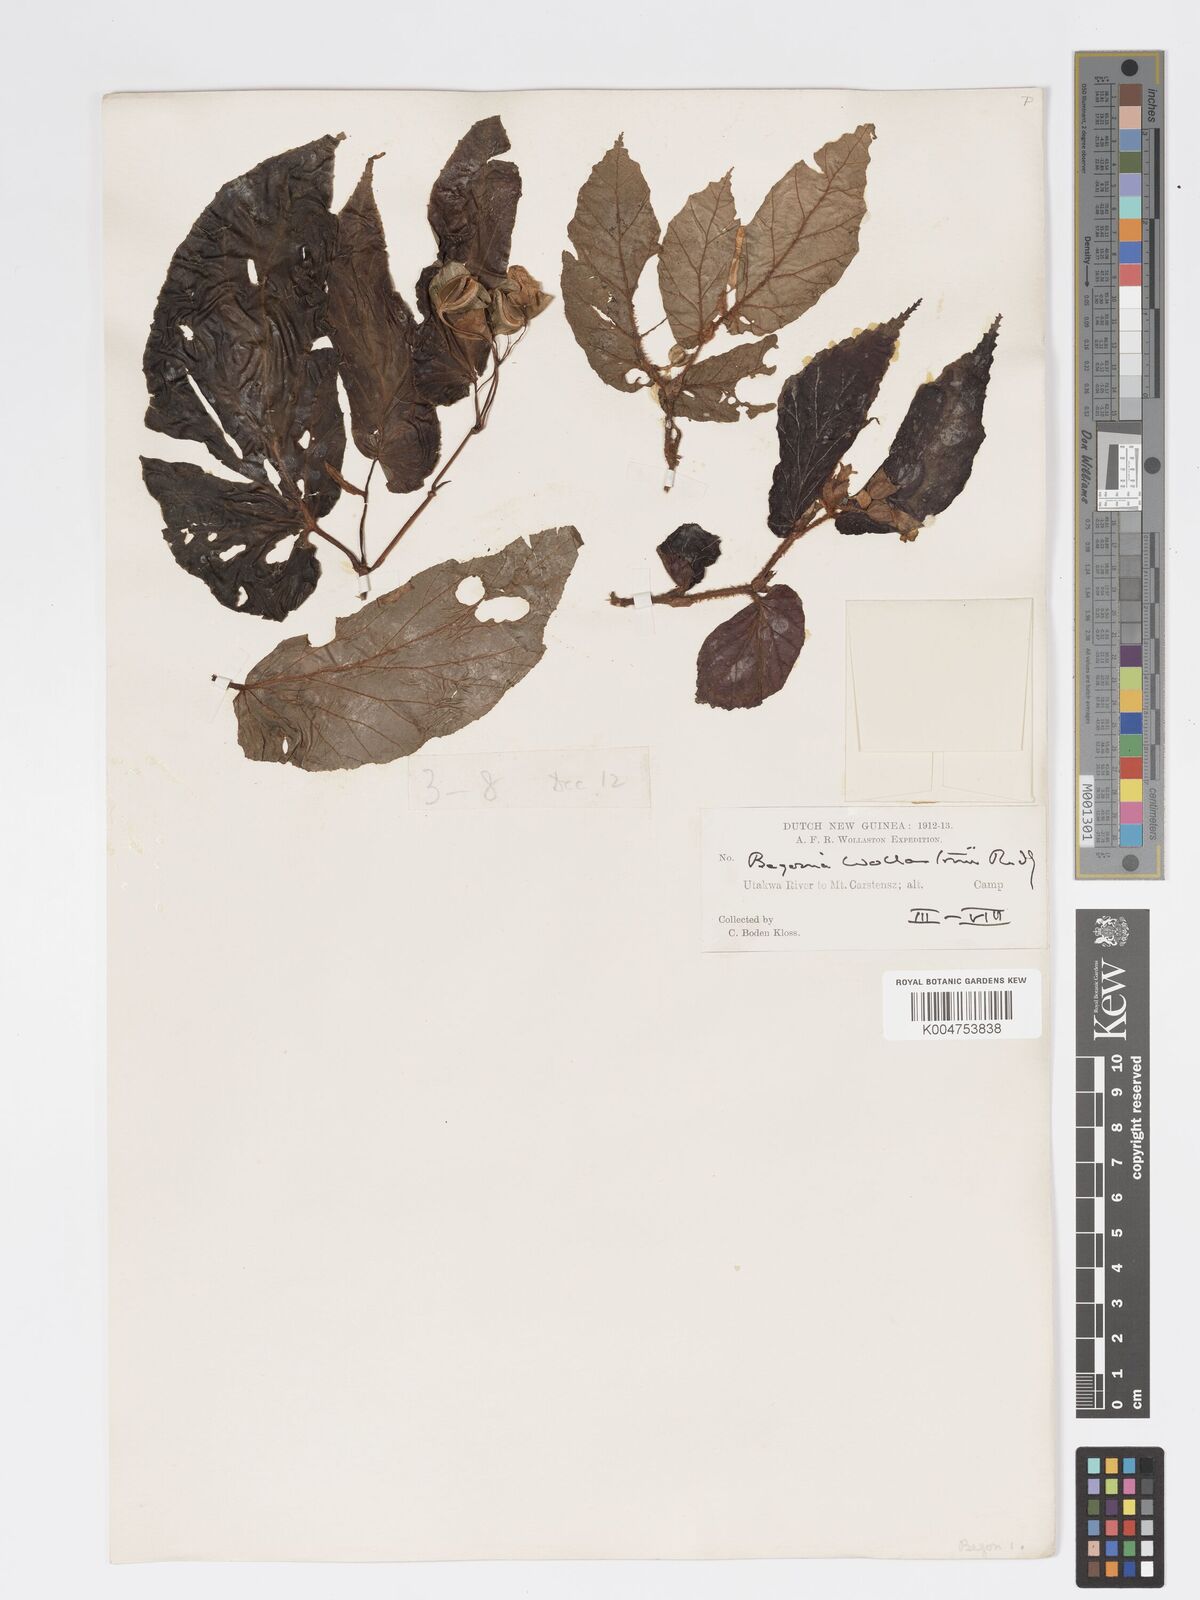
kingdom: Plantae
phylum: Tracheophyta
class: Magnoliopsida
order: Cucurbitales
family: Begoniaceae
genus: Begonia
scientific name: Begonia wollastonii
